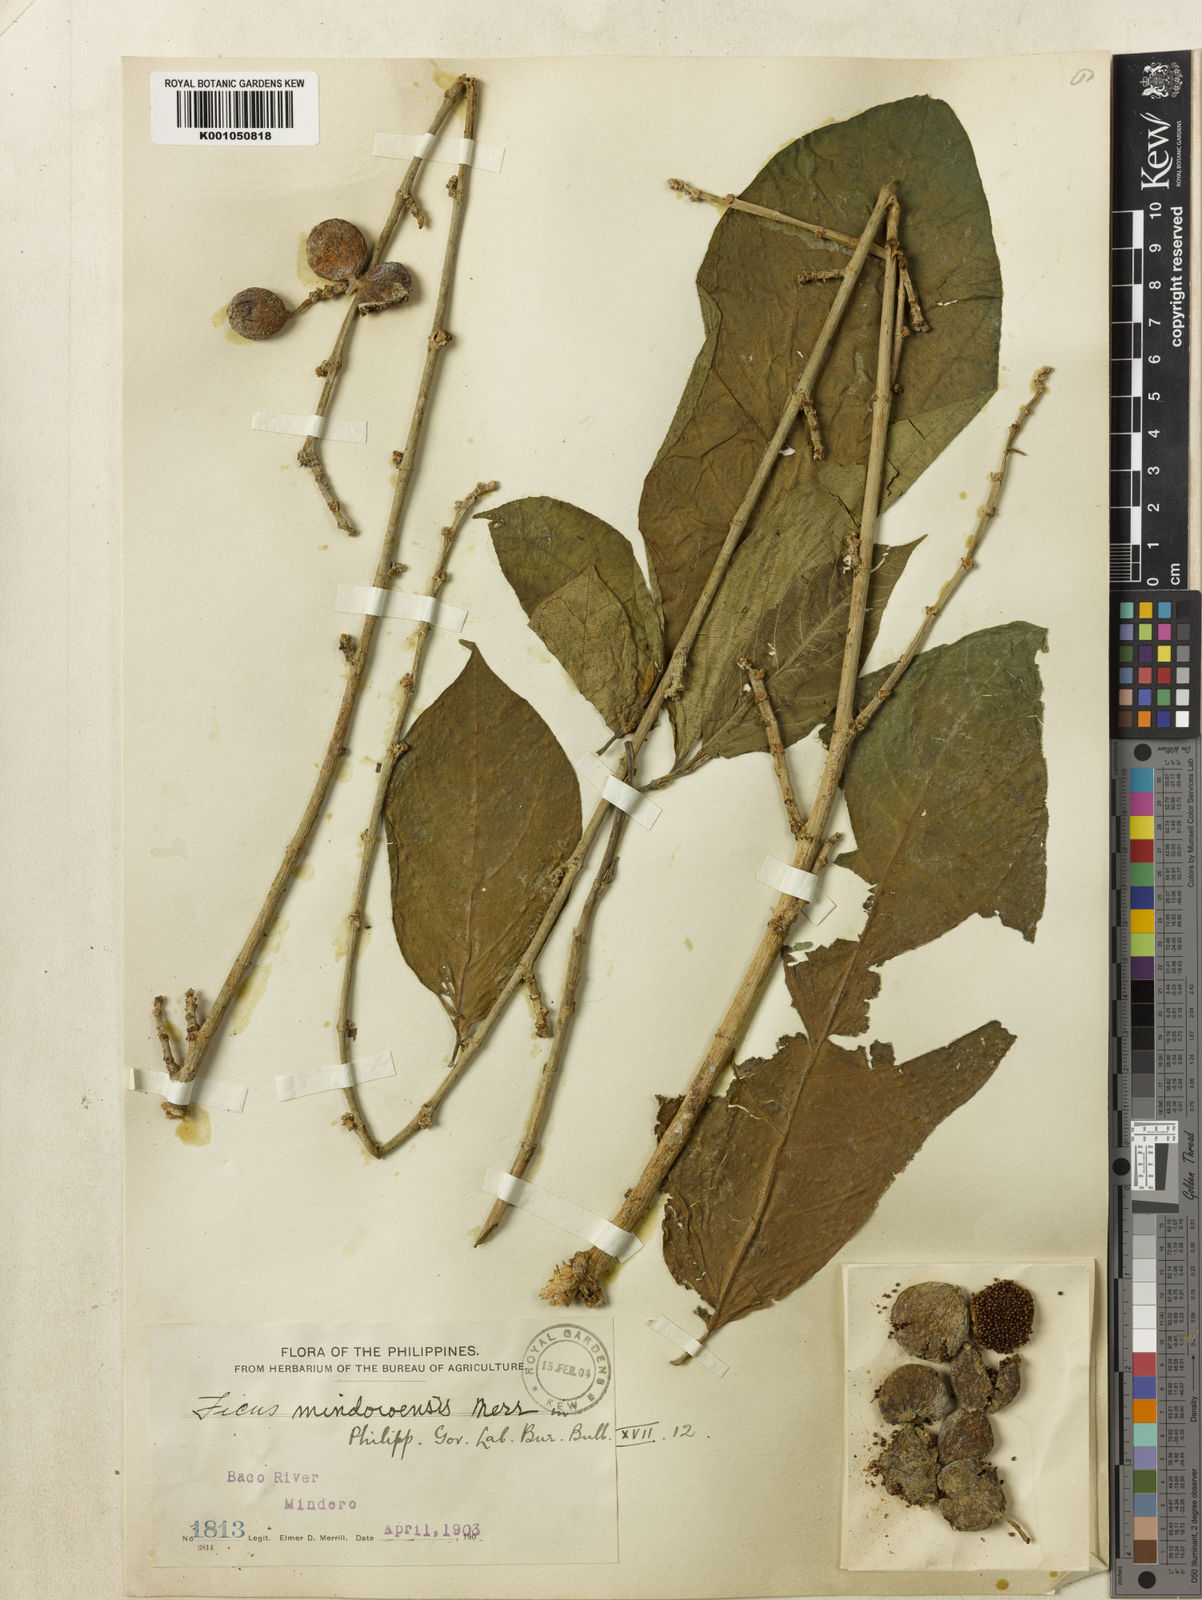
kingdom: Plantae
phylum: Tracheophyta
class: Magnoliopsida
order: Rosales
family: Moraceae
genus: Ficus
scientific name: Ficus botryocarpa
